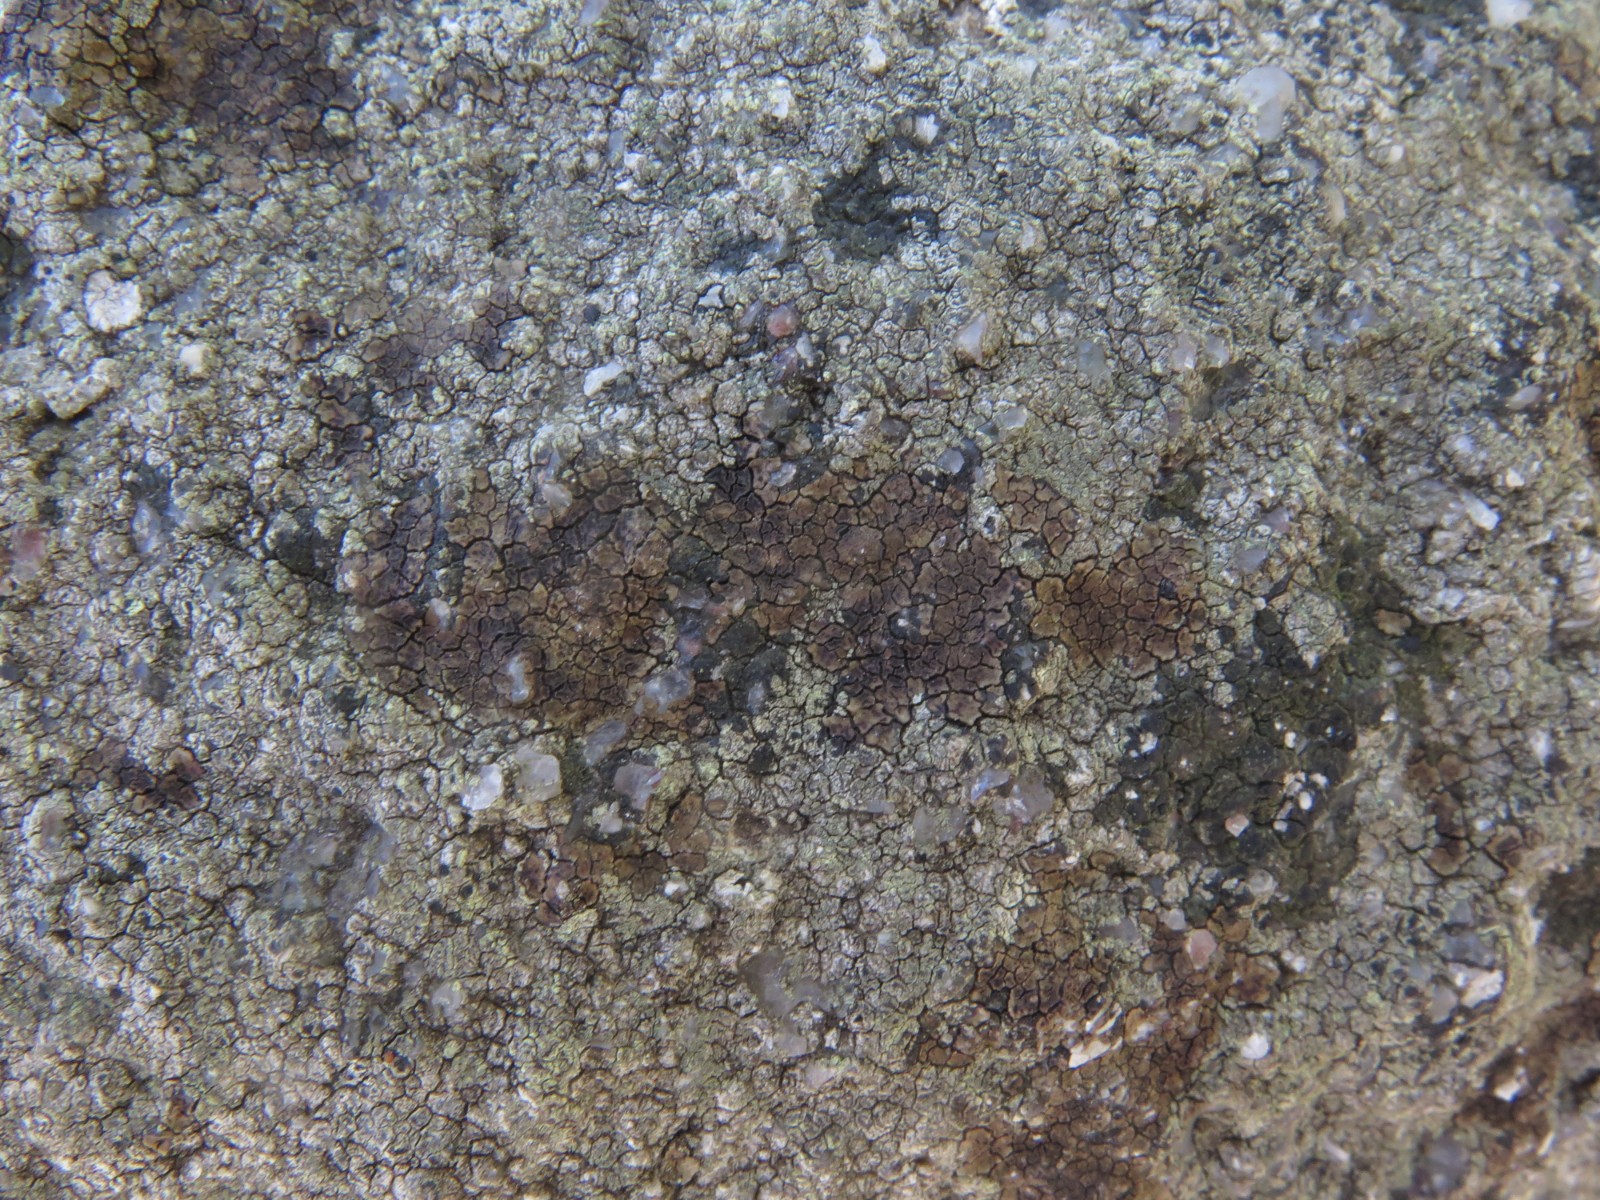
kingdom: Fungi
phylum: Ascomycota
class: Lecanoromycetes
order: Acarosporales
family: Acarosporaceae
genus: Acarospora
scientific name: Acarospora fuscata
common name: brun småsporelav
